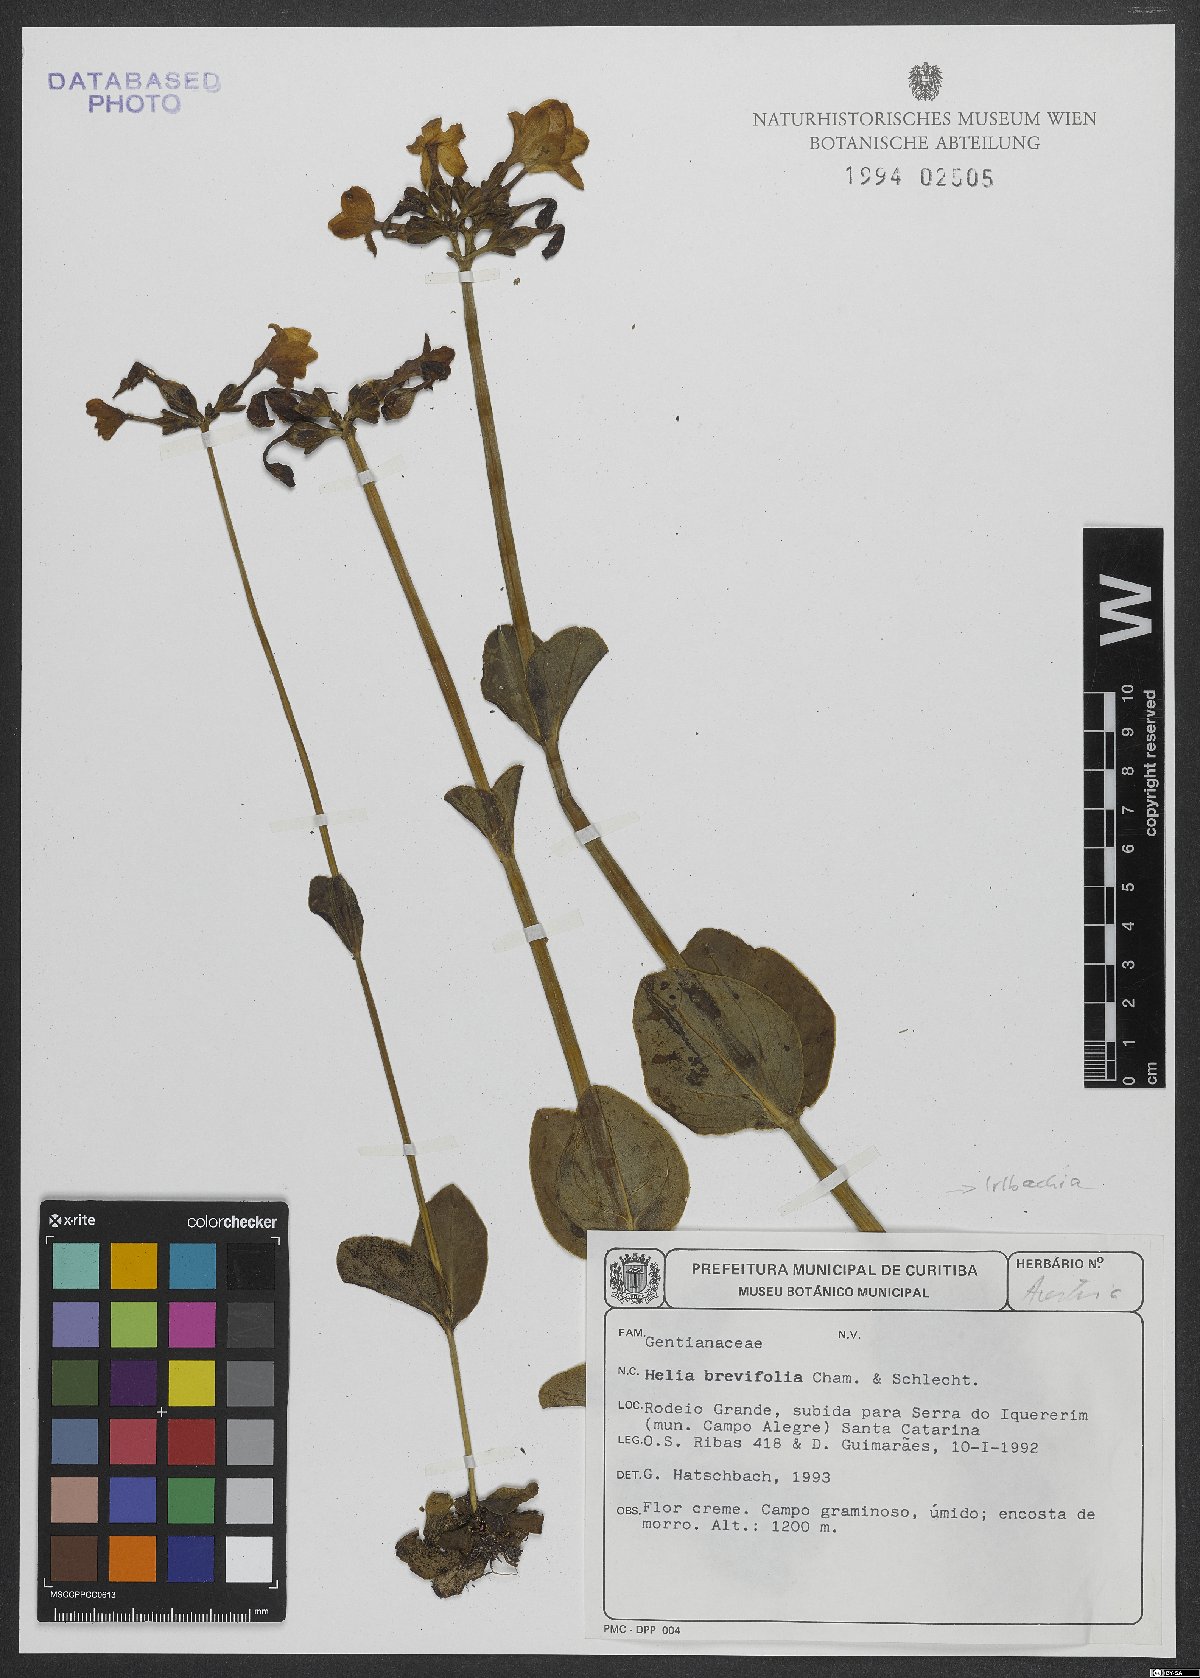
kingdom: Plantae
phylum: Tracheophyta
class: Magnoliopsida
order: Gentianales
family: Gentianaceae
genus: Irlbachia
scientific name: Irlbachia oblongifolia
